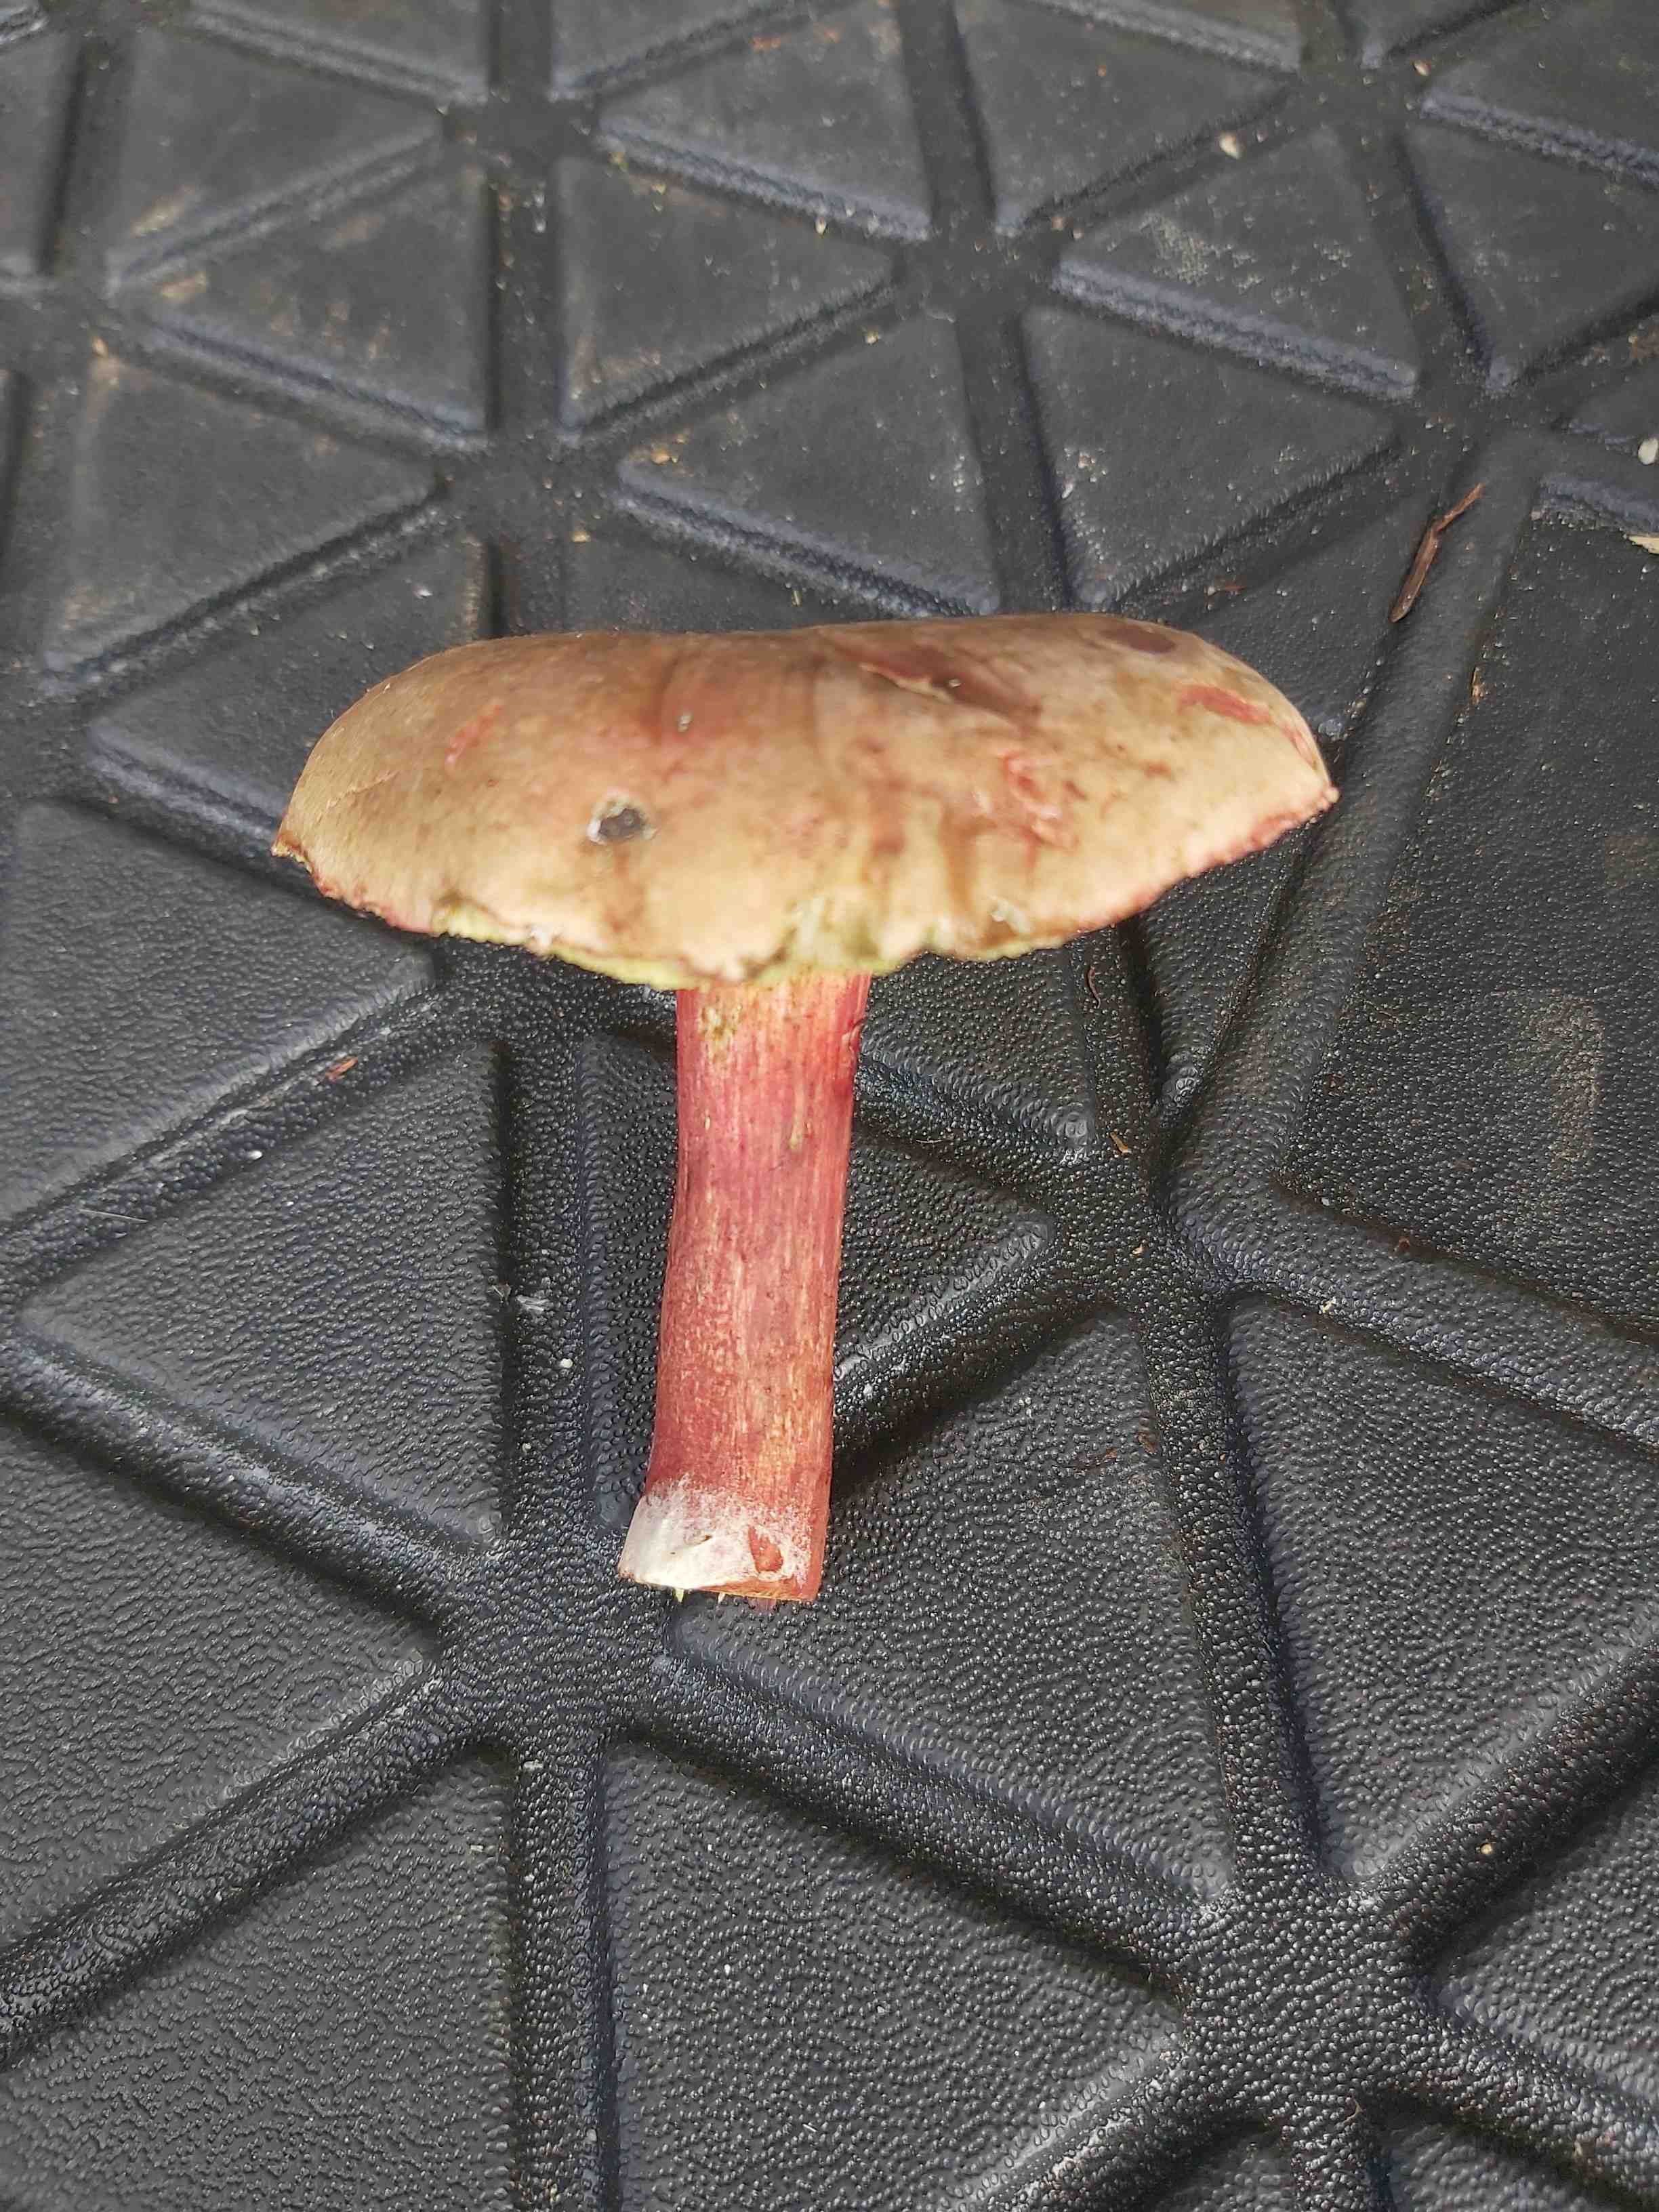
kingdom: Fungi
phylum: Basidiomycota
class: Agaricomycetes
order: Boletales
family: Boletaceae
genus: Xerocomellus
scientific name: Xerocomellus
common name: dværgrørhat
